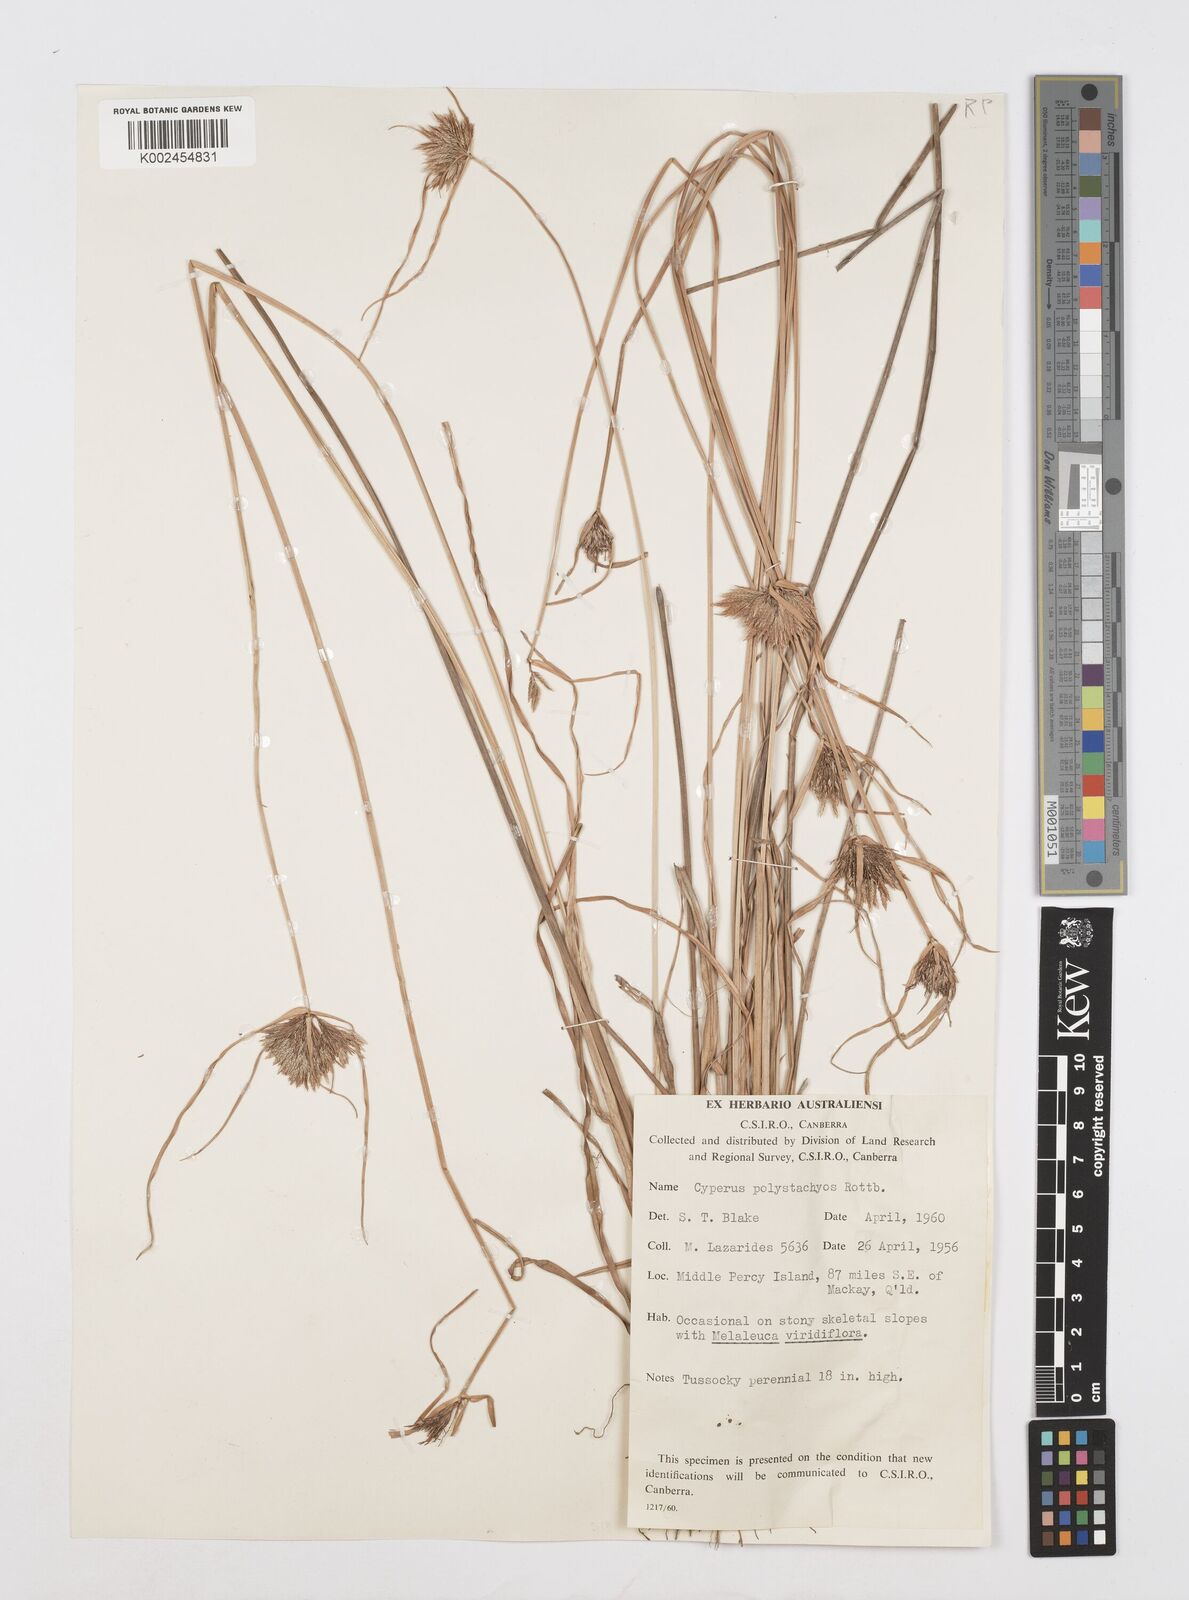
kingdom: Plantae
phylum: Tracheophyta
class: Liliopsida
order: Poales
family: Cyperaceae
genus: Cyperus
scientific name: Cyperus polystachyos
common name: Bunchy flat sedge
